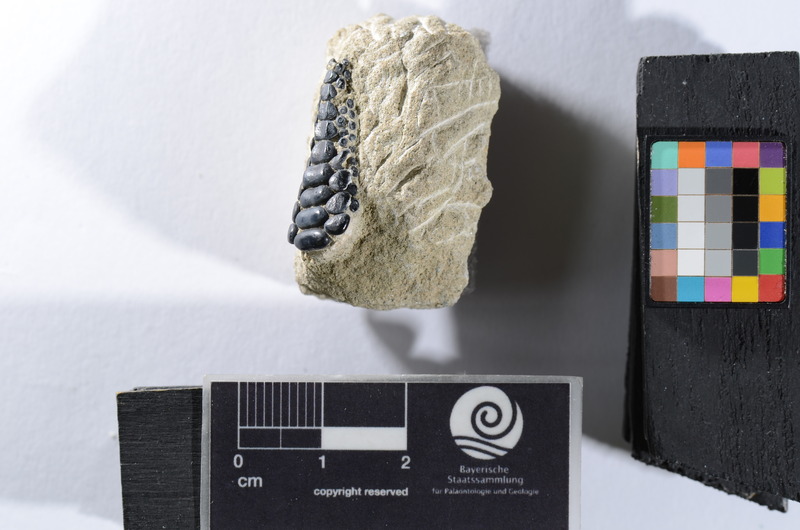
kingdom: Animalia
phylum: Chordata
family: Pycnodontidae
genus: Anomoeodus
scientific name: Anomoeodus
